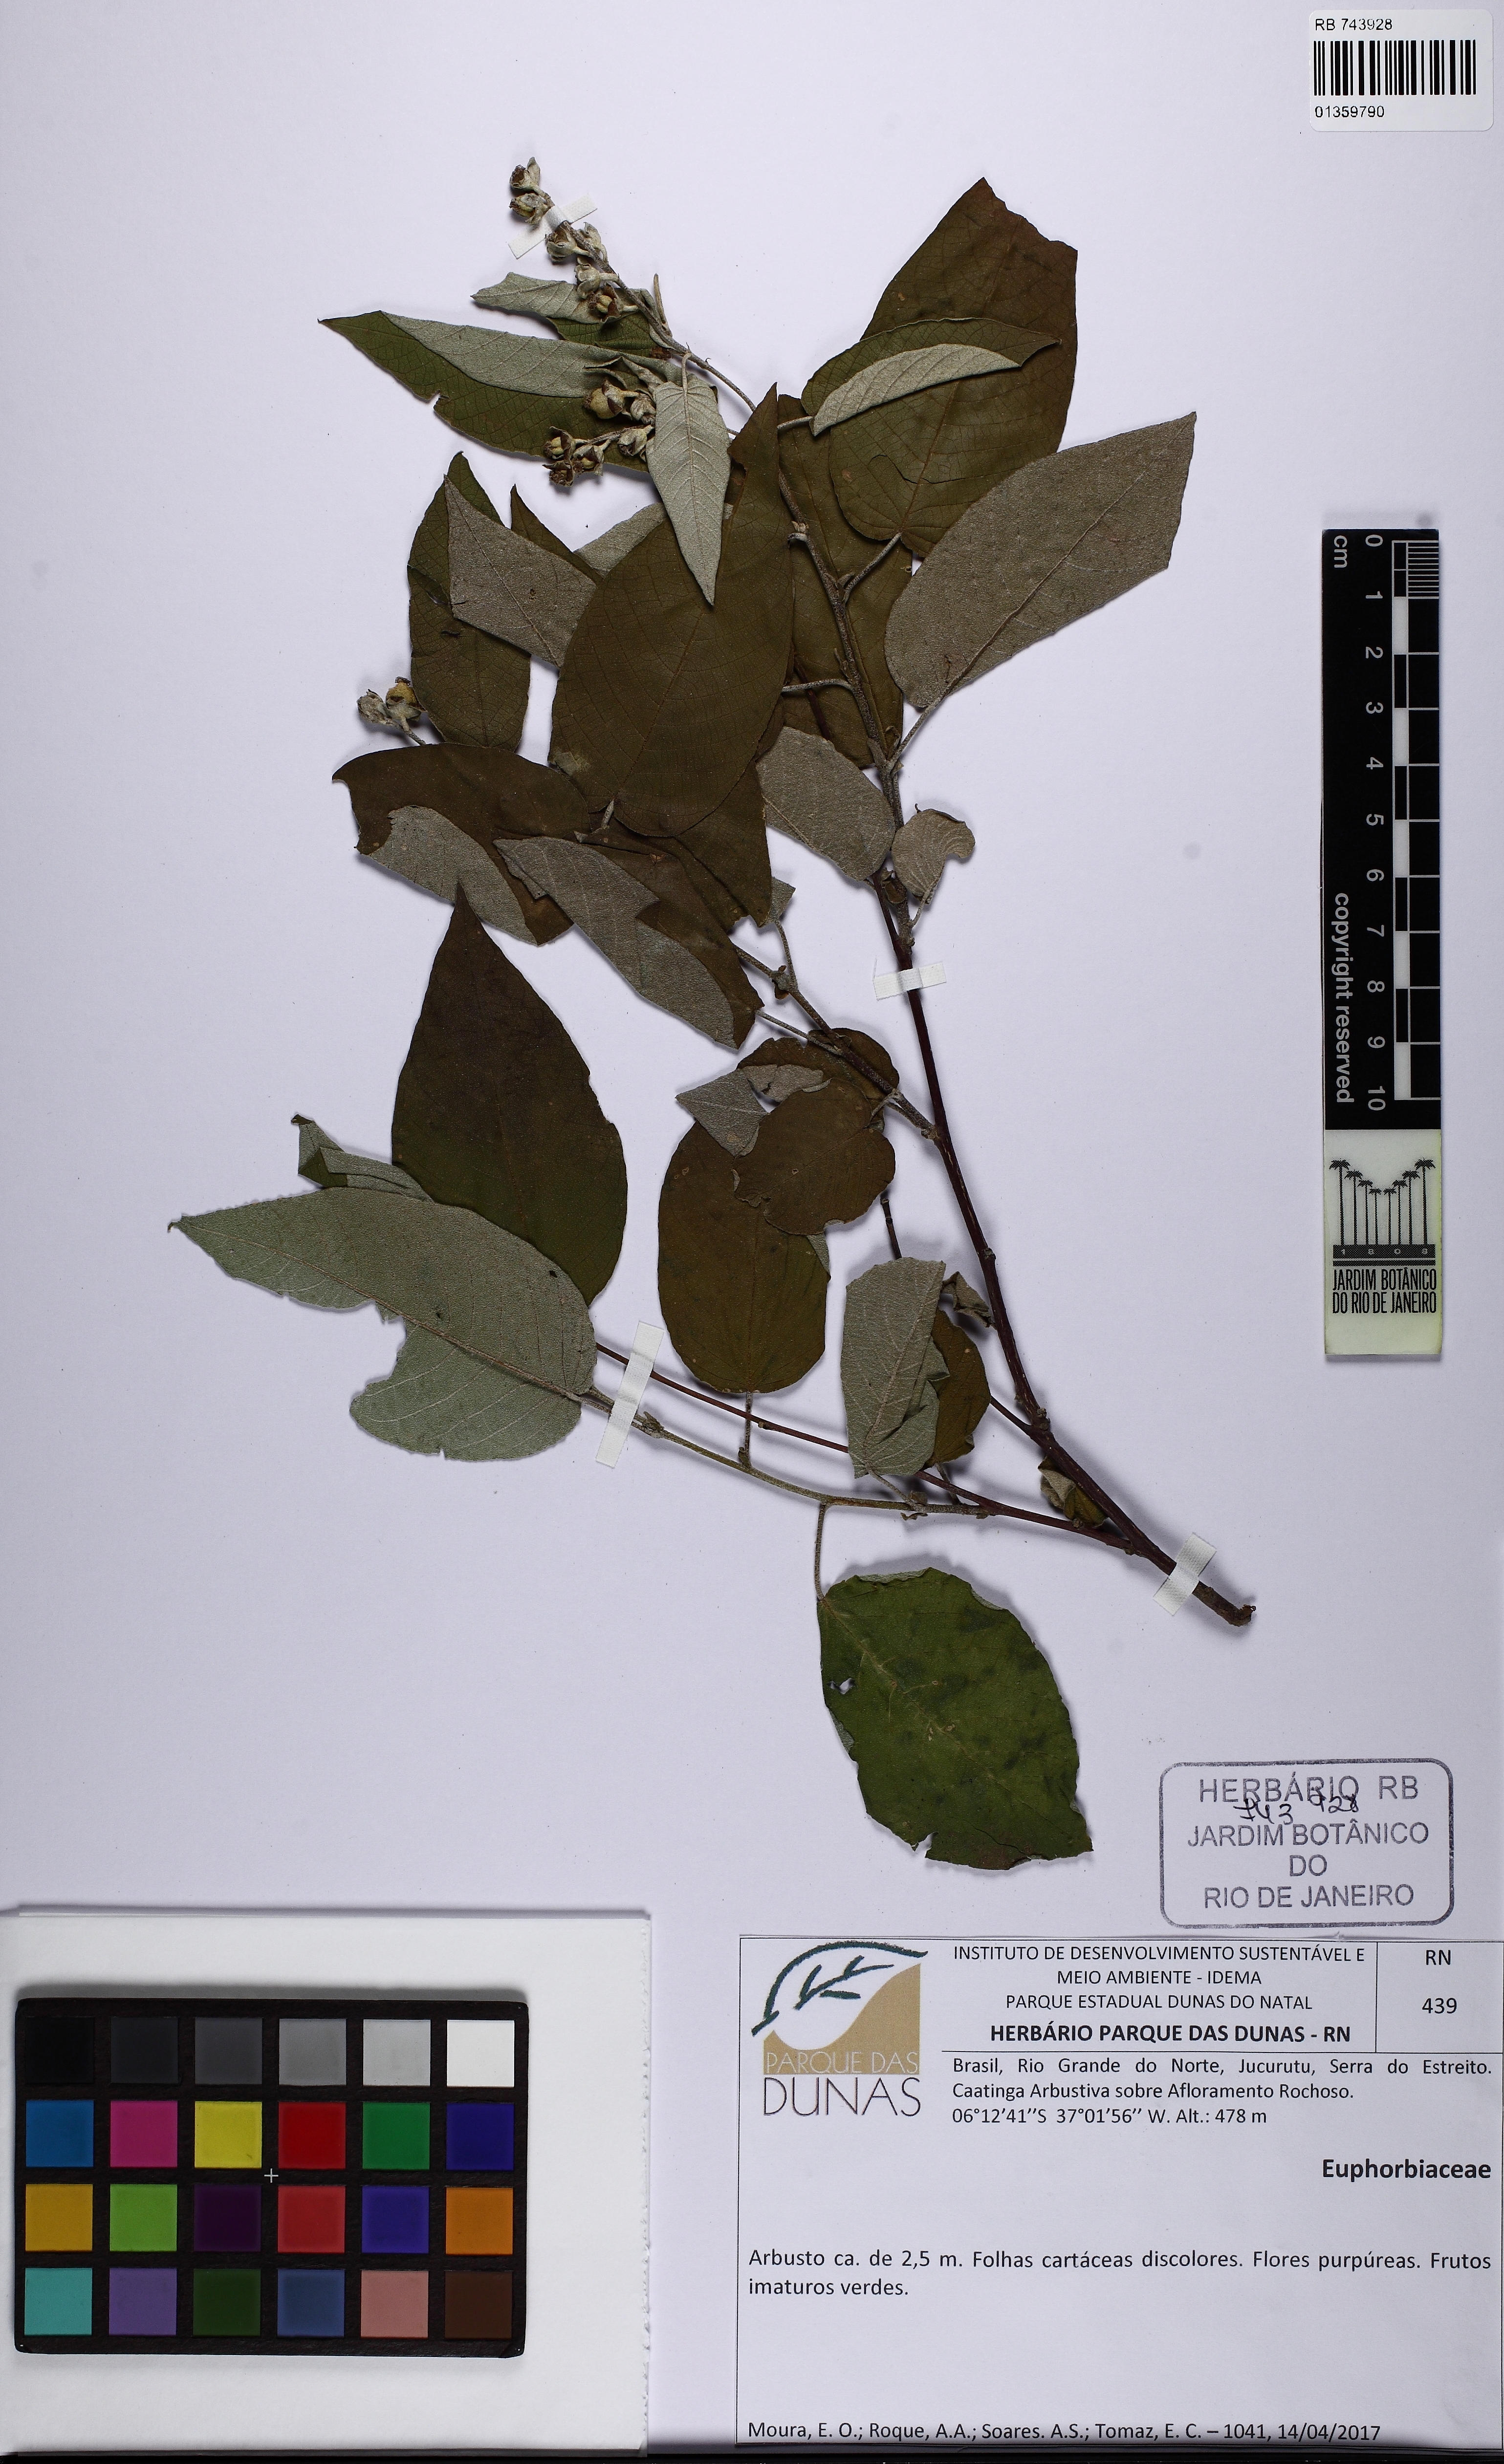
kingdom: Plantae
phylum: Tracheophyta
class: Magnoliopsida
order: Malpighiales
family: Euphorbiaceae
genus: Croton
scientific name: Croton
